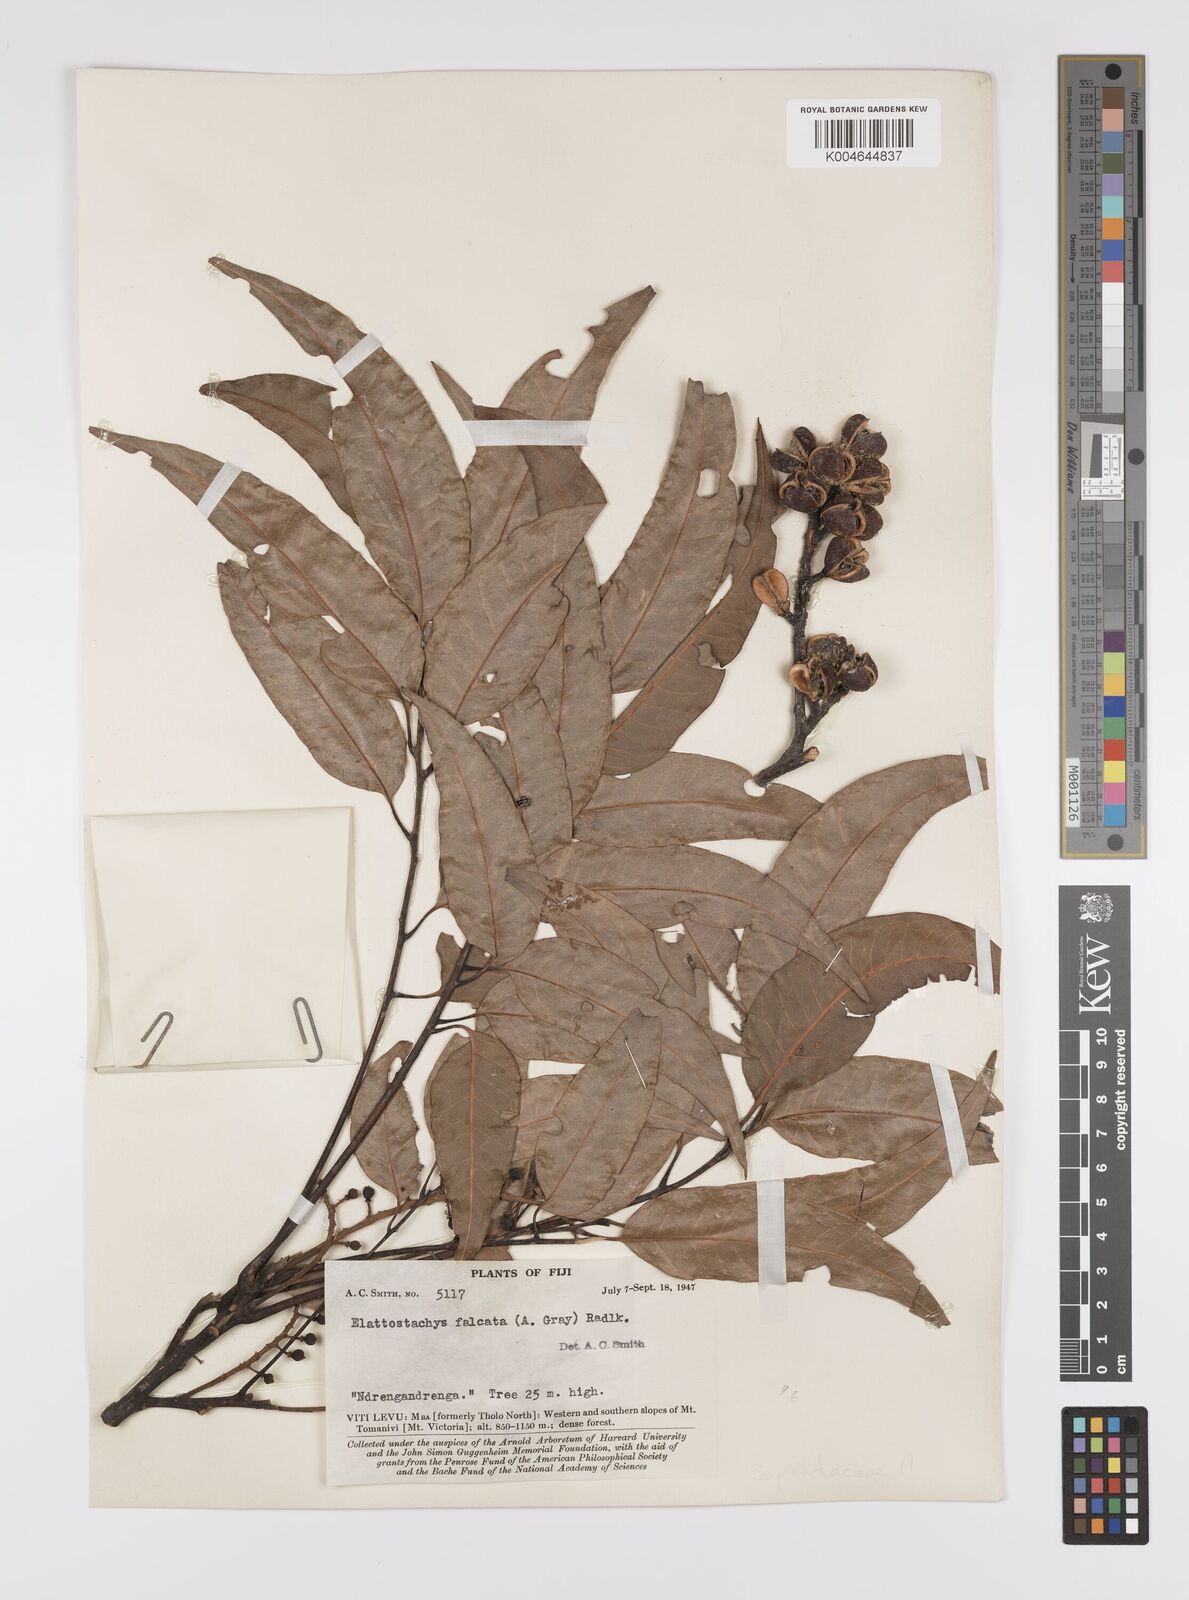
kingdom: Plantae
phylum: Tracheophyta
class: Magnoliopsida
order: Sapindales
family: Sapindaceae
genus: Elattostachys
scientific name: Elattostachys apetala
